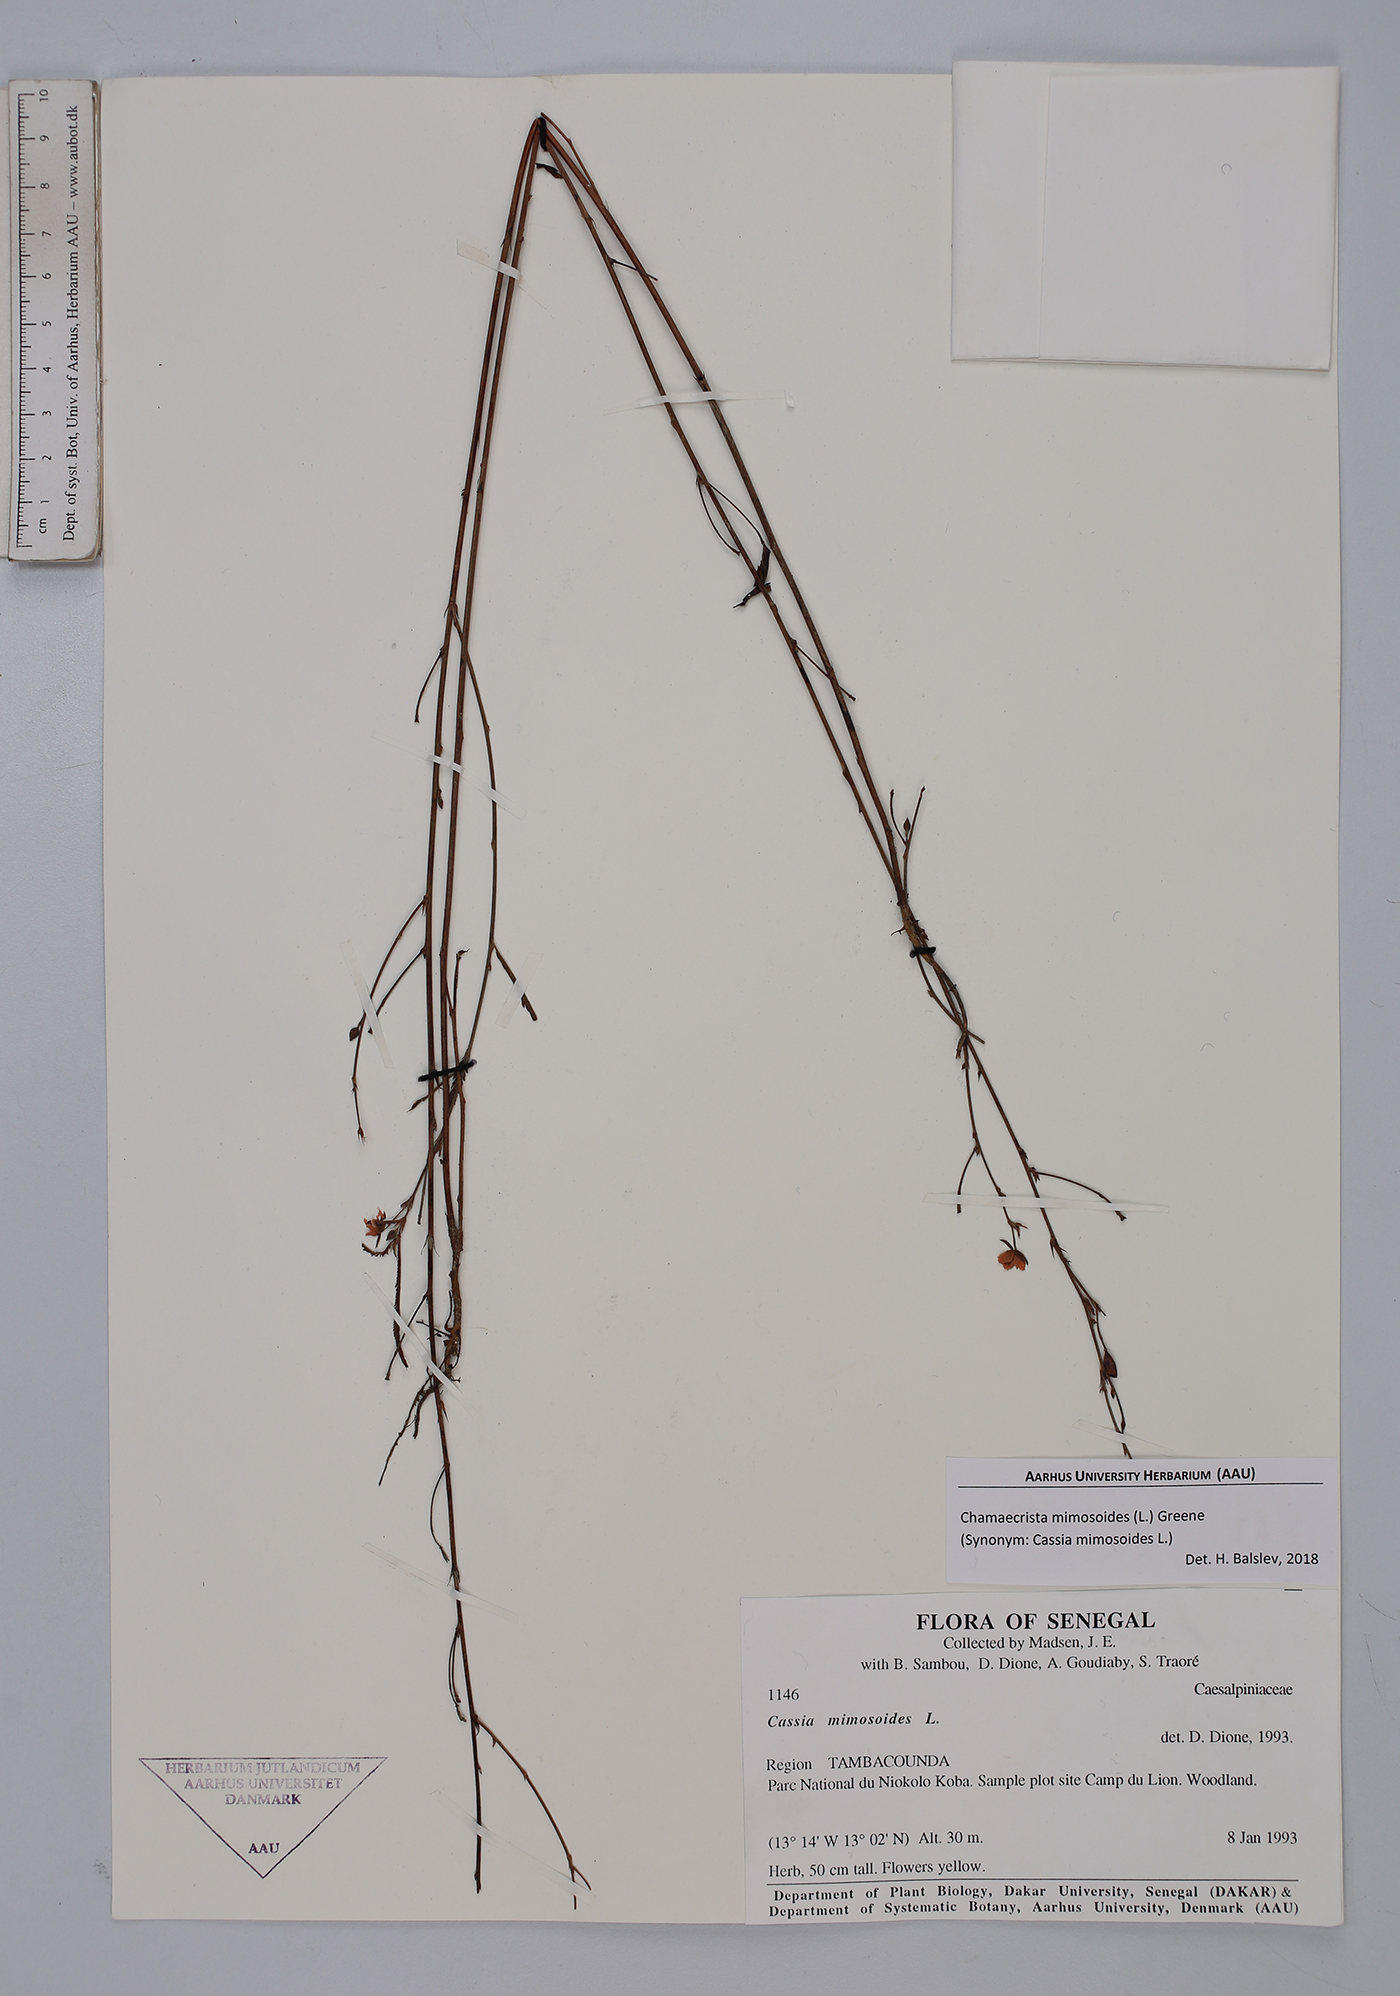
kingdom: Plantae
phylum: Tracheophyta
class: Magnoliopsida
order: Fabales
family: Fabaceae
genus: Chamaecrista
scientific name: Chamaecrista mimosoides
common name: Fish-bone cassia
